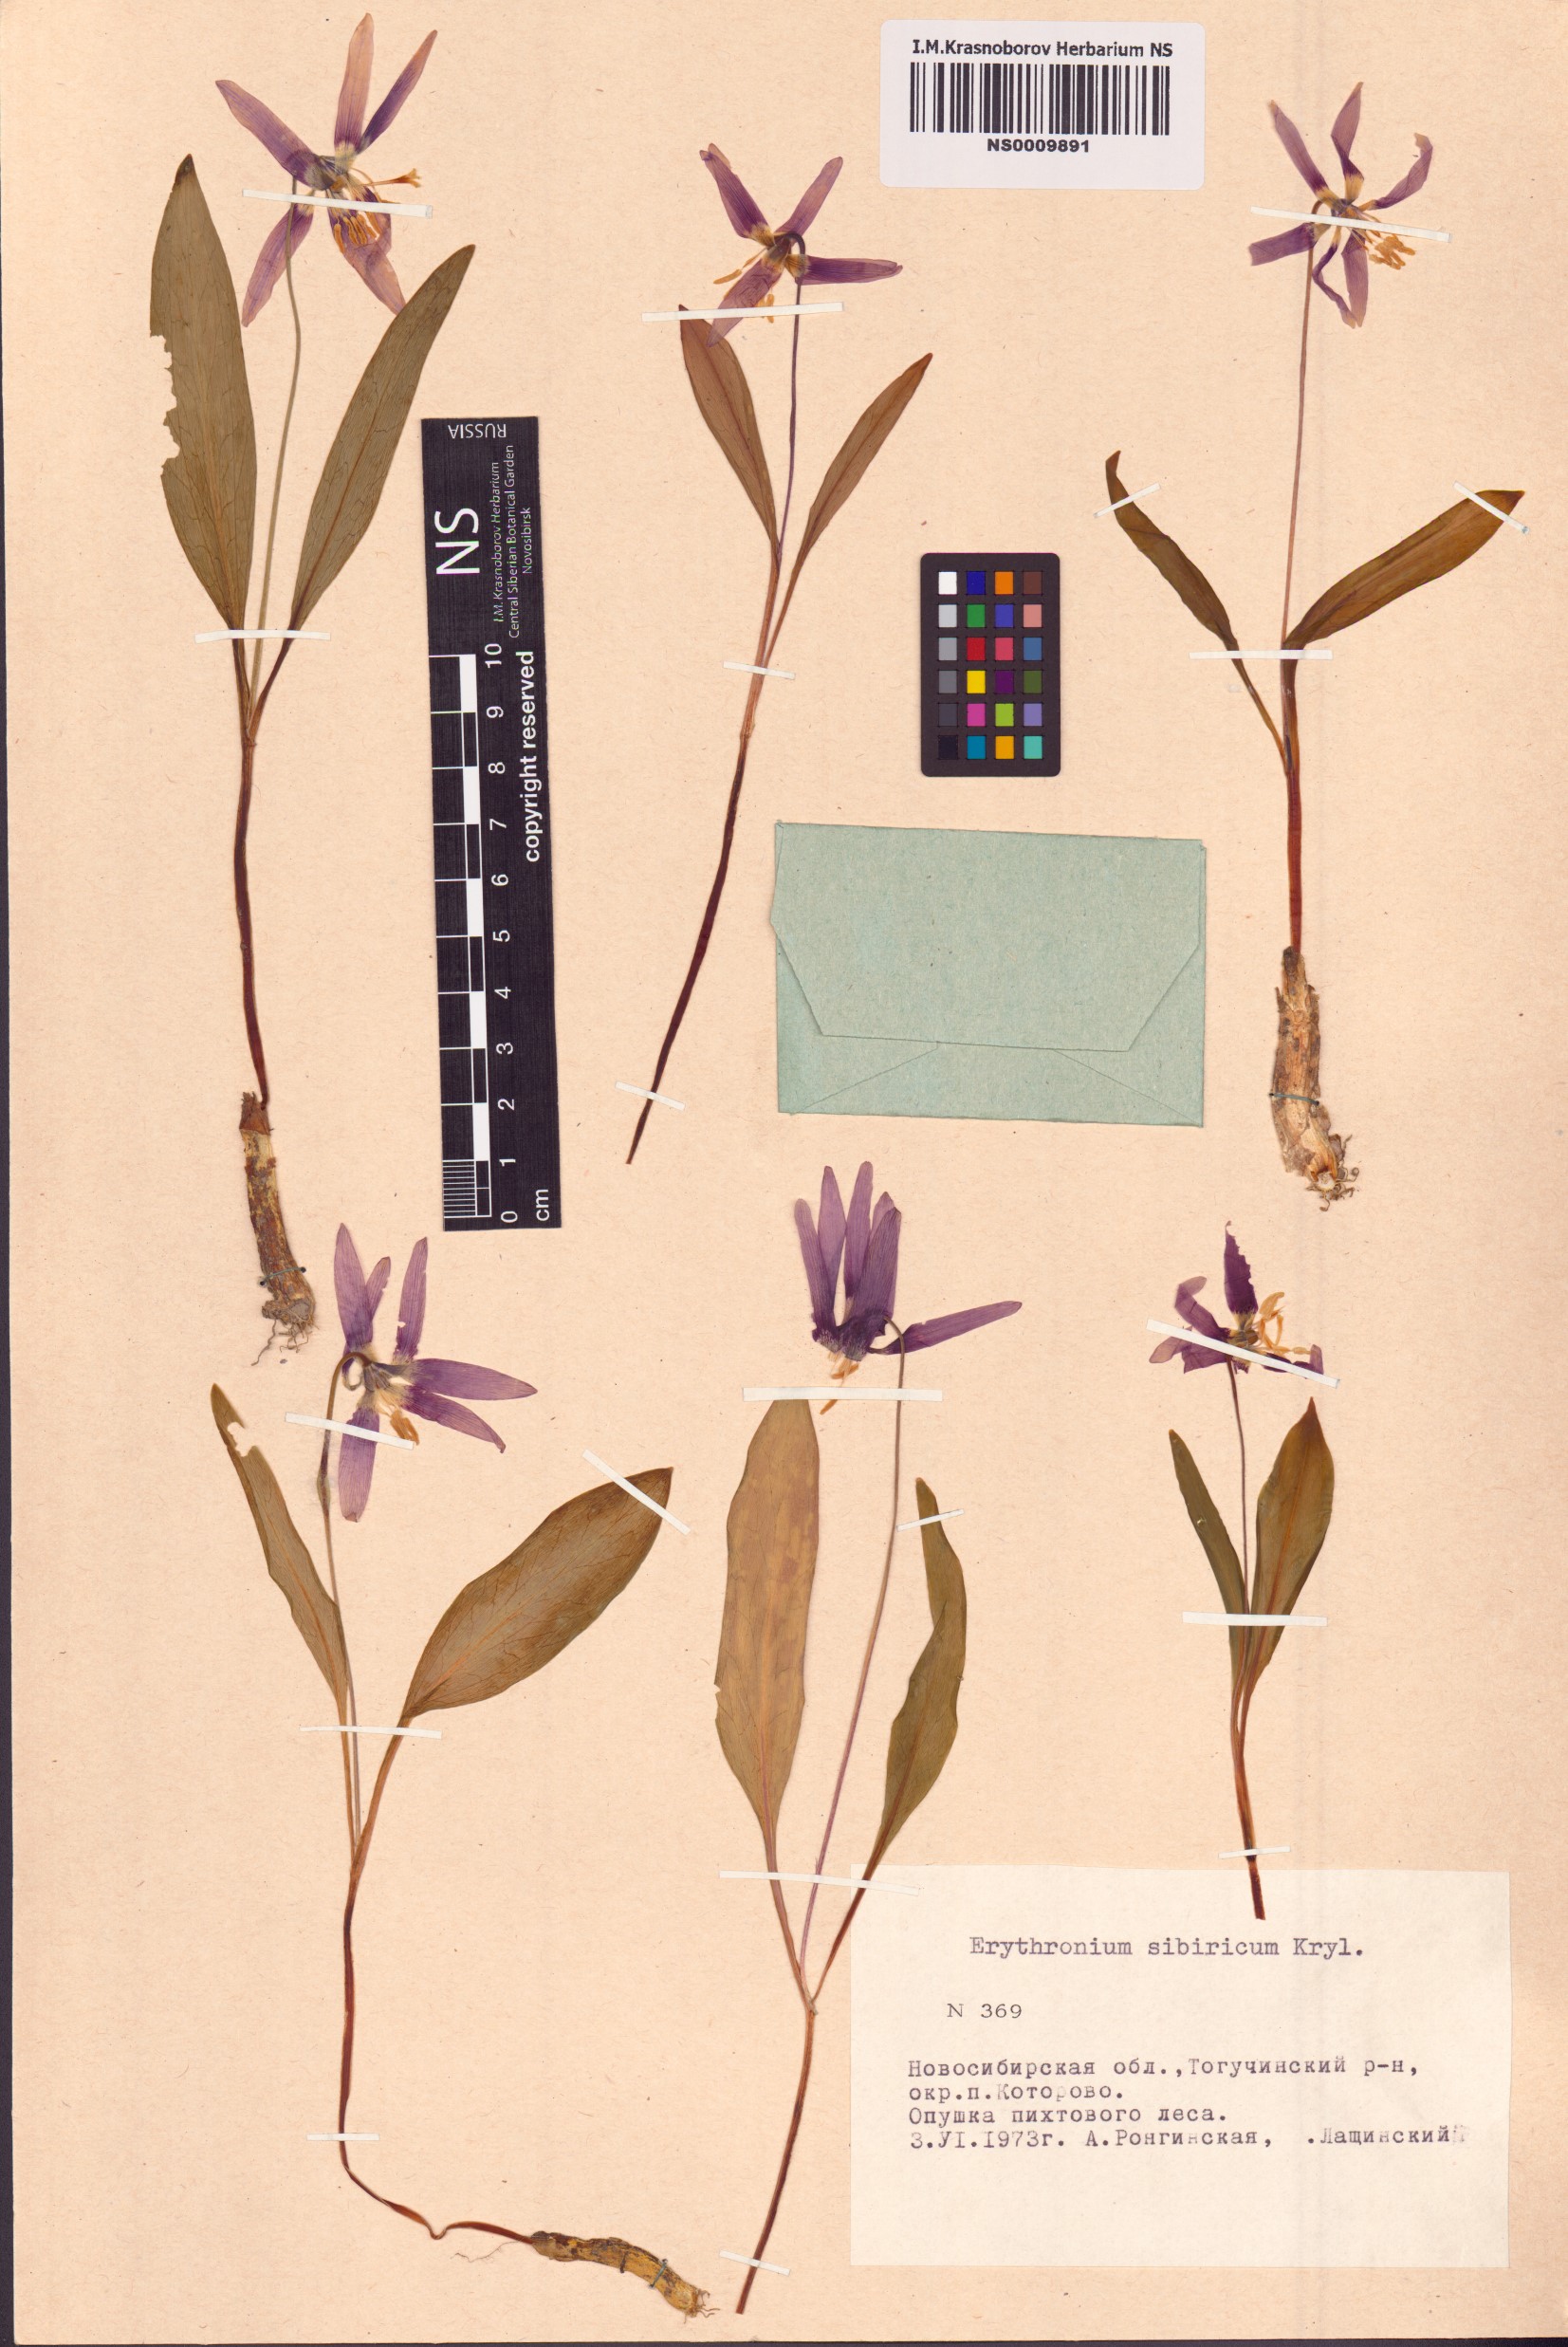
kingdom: Plantae
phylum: Tracheophyta
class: Liliopsida
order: Liliales
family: Liliaceae
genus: Erythronium
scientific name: Erythronium sibiricum
